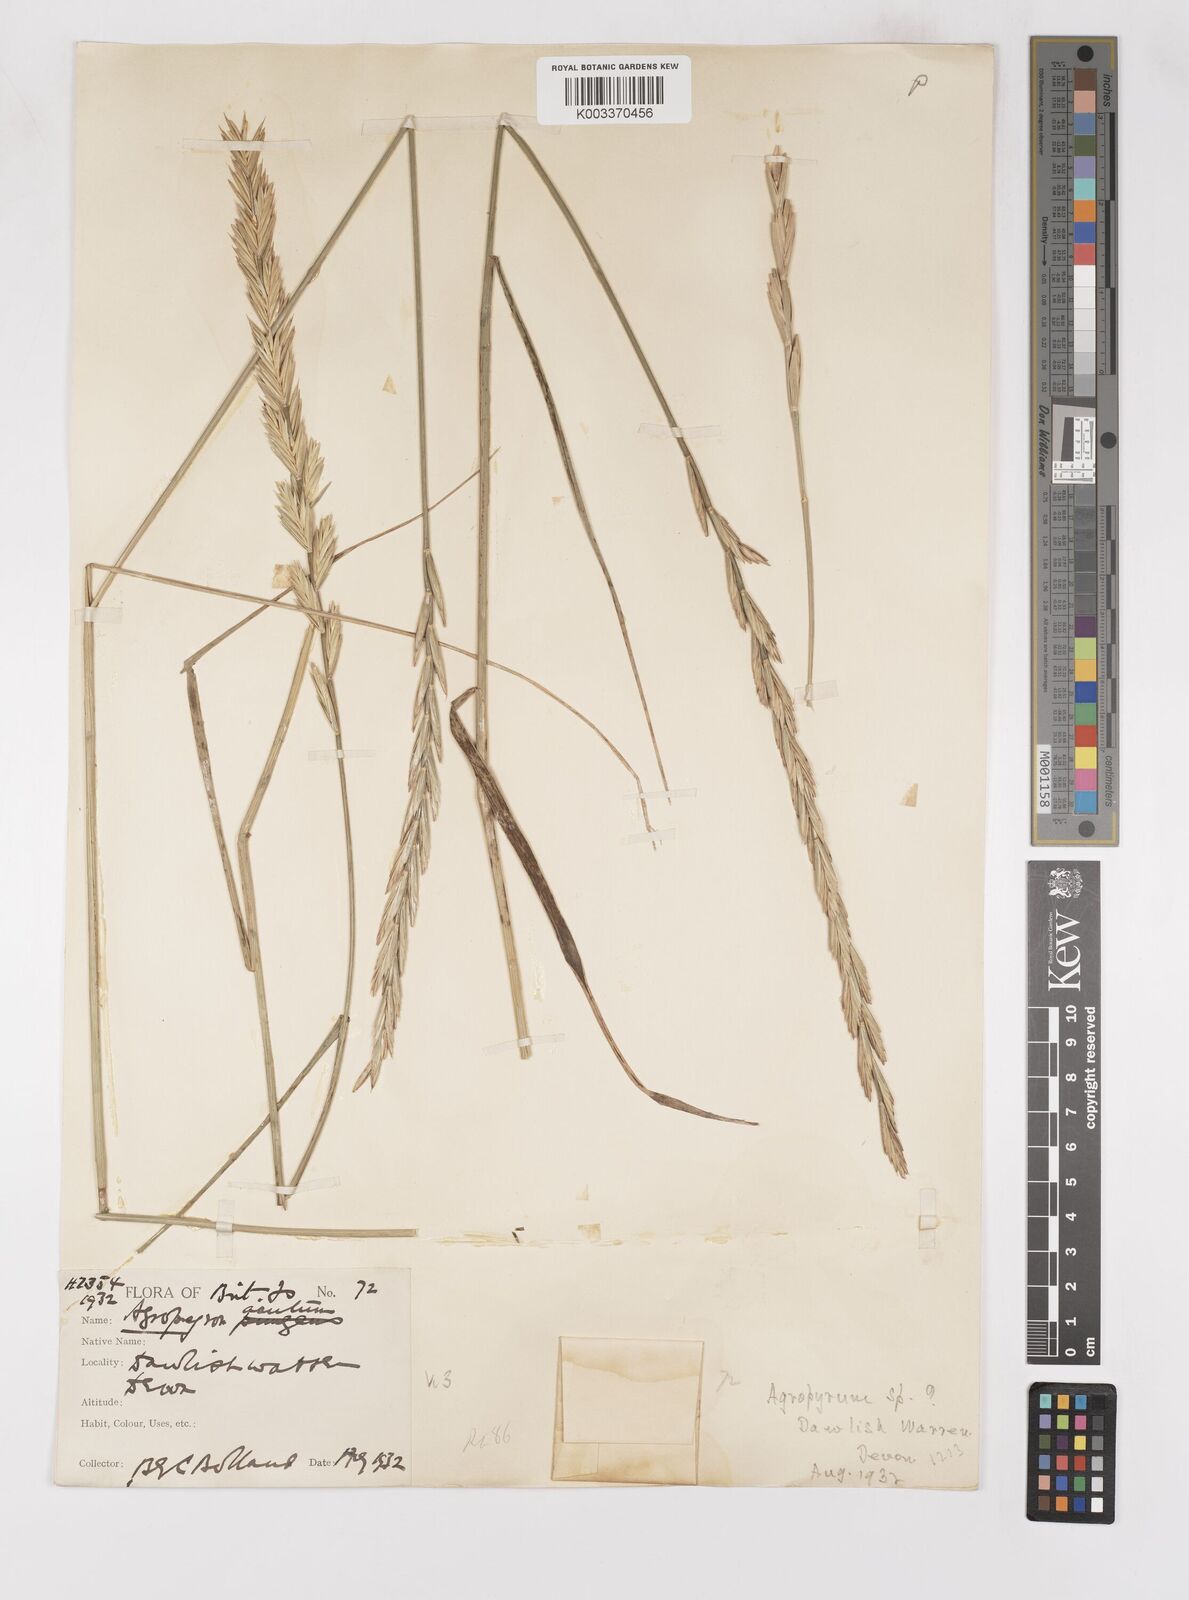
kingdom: Plantae
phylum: Tracheophyta
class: Liliopsida
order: Poales
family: Poaceae
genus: Thinoelymus
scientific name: Thinoelymus obtusiusculus
